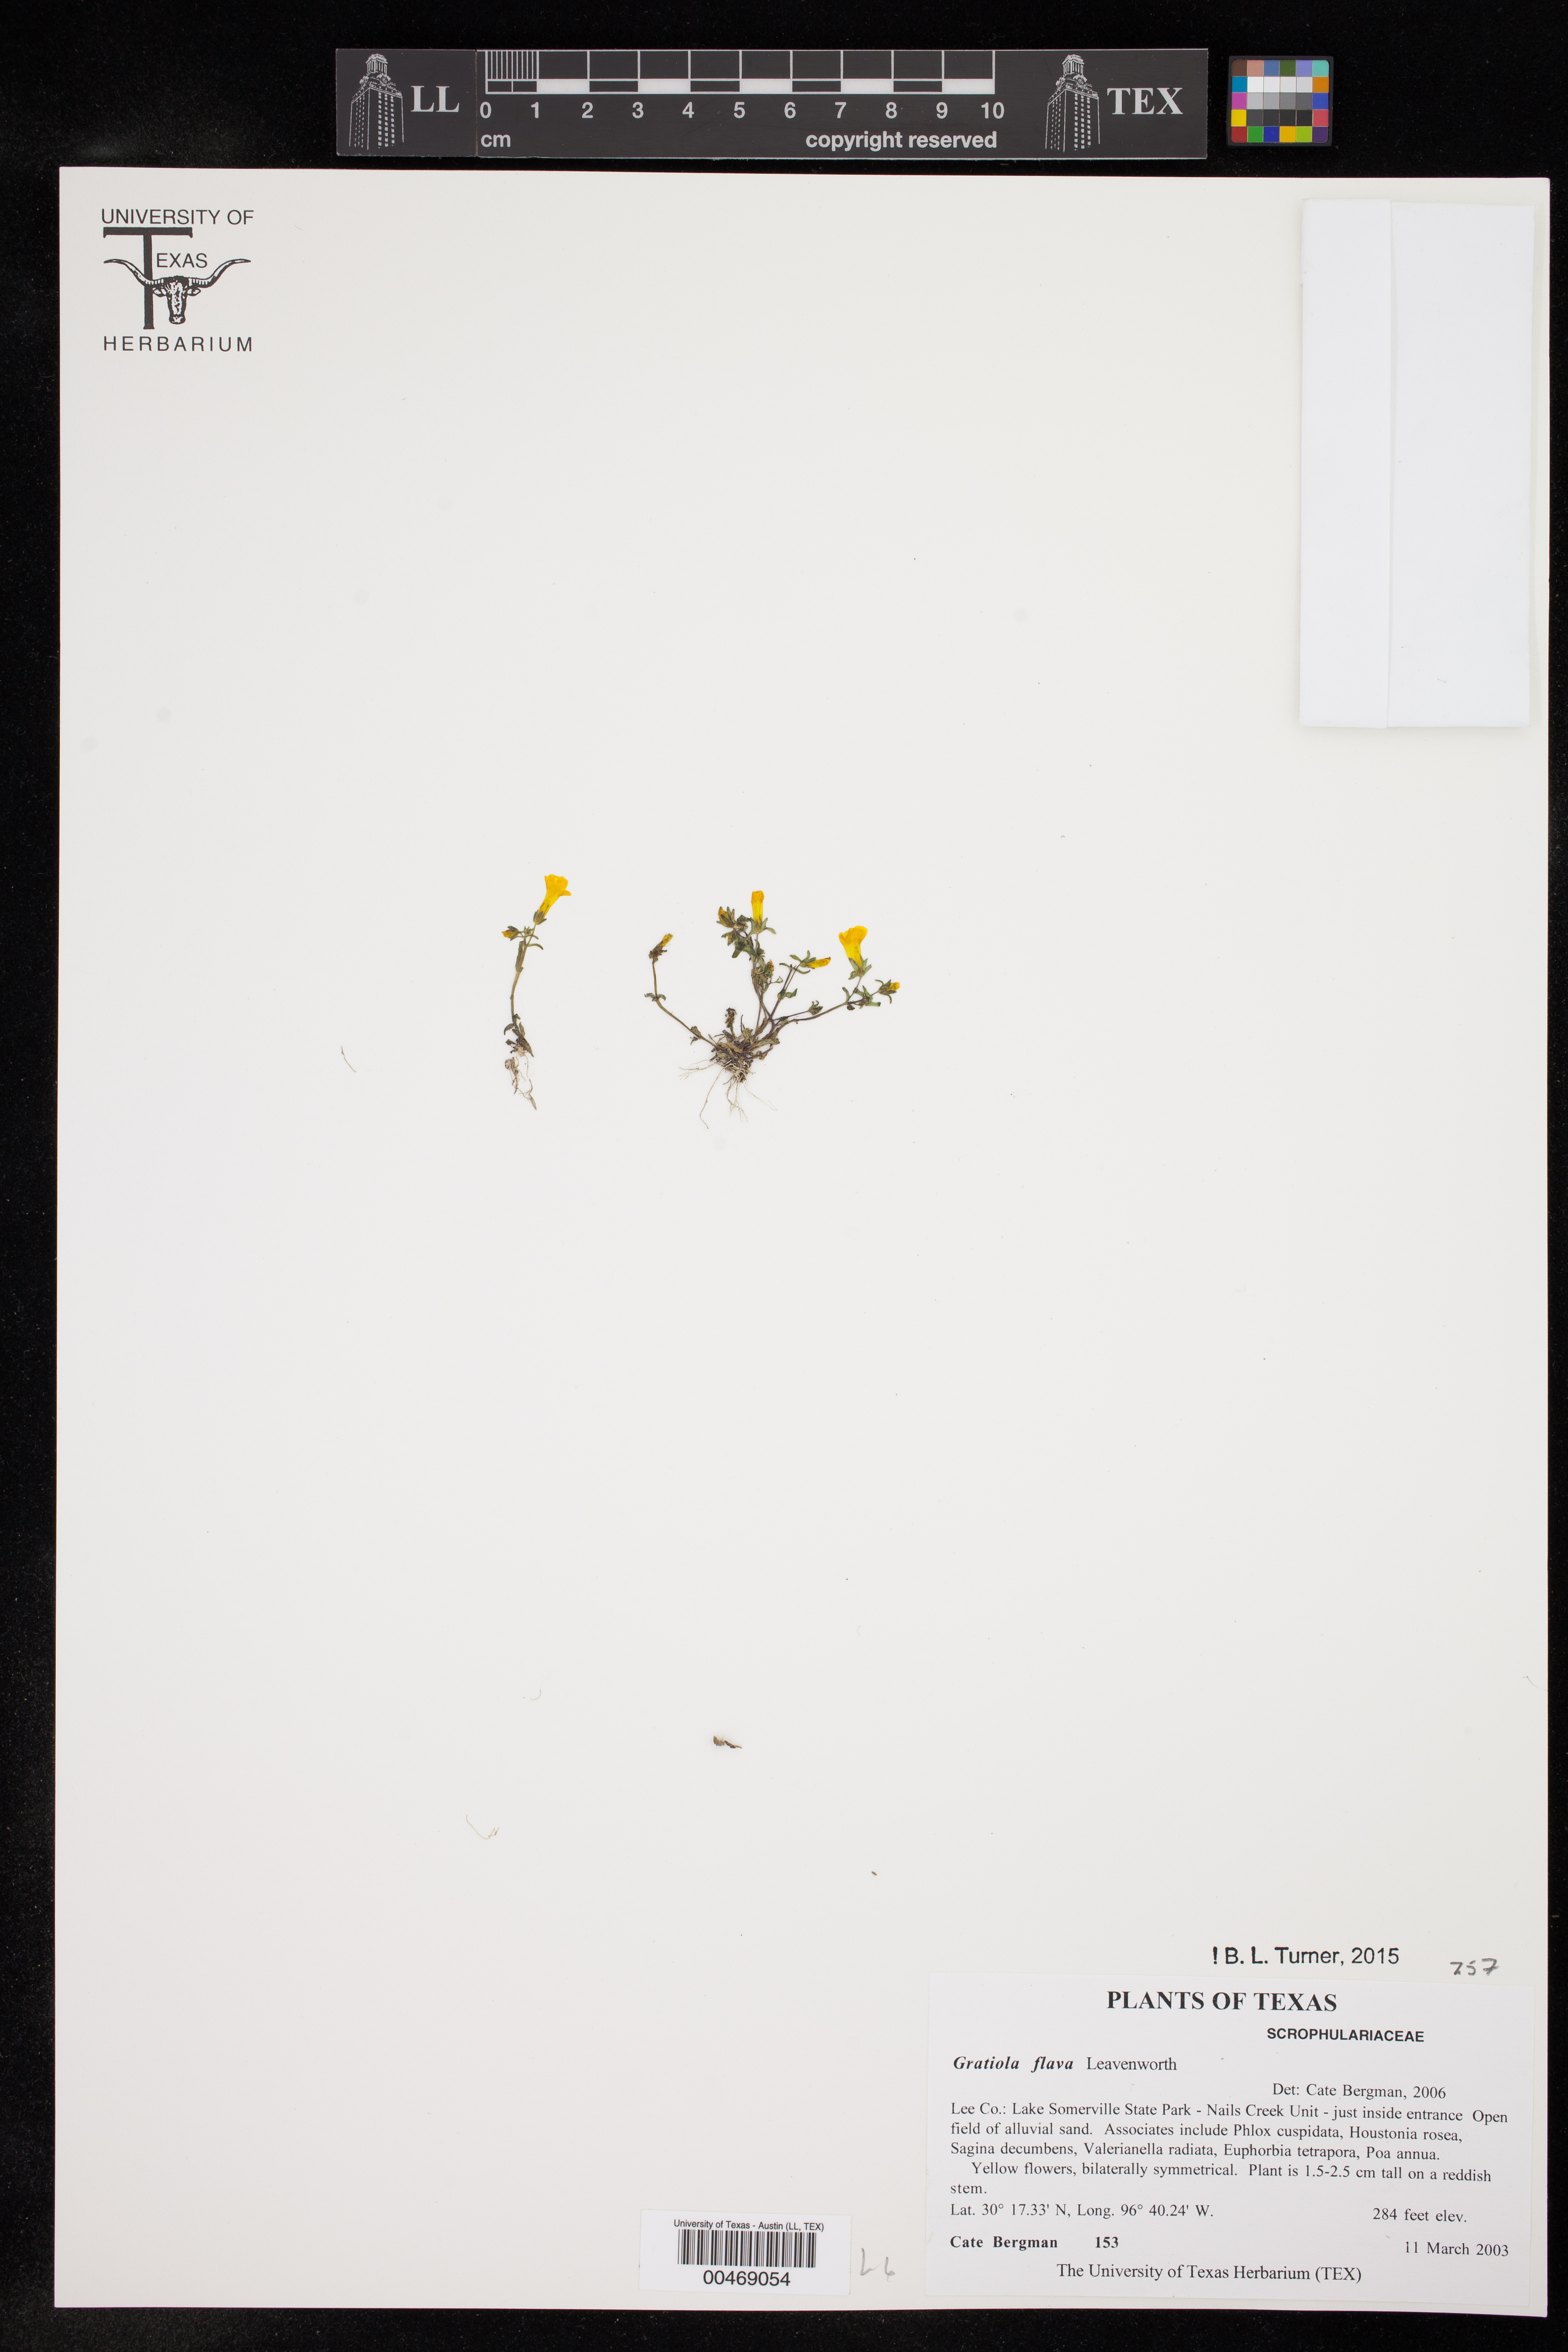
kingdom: Plantae
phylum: Tracheophyta
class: Magnoliopsida
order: Lamiales
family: Plantaginaceae
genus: Gratiola
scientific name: Gratiola flava
